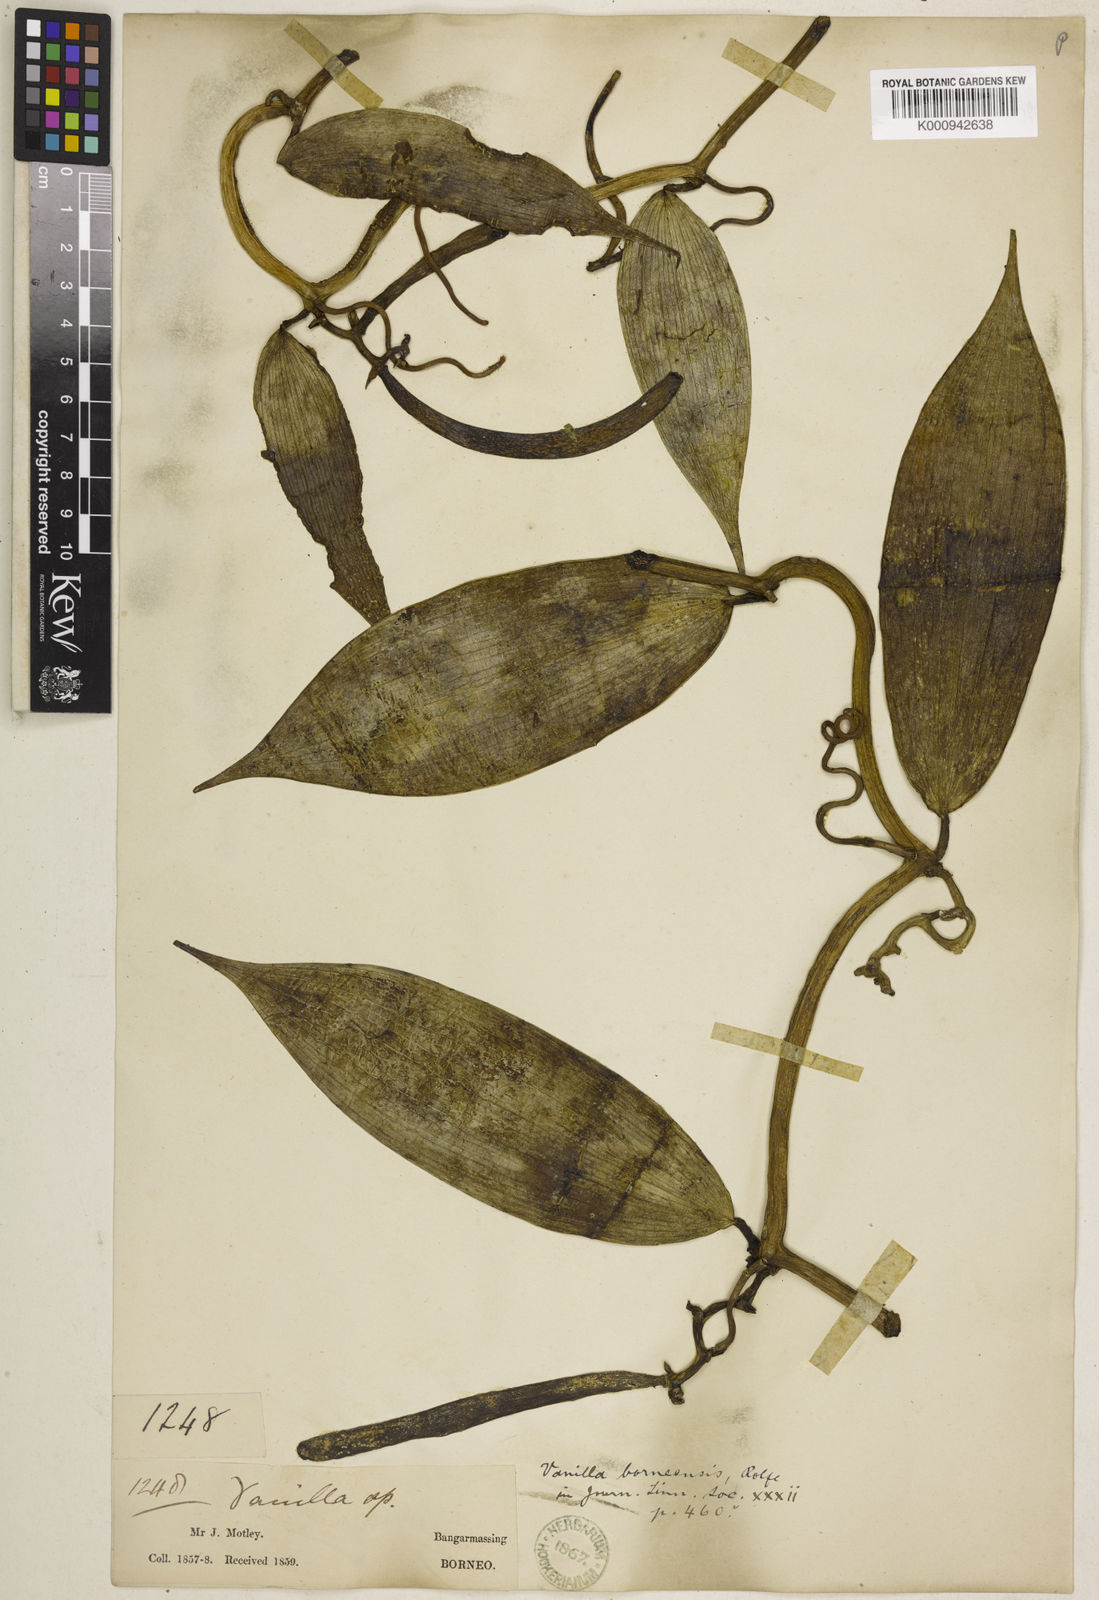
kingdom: Plantae
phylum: Tracheophyta
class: Liliopsida
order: Asparagales
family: Orchidaceae
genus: Vanilla
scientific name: Vanilla borneensis
